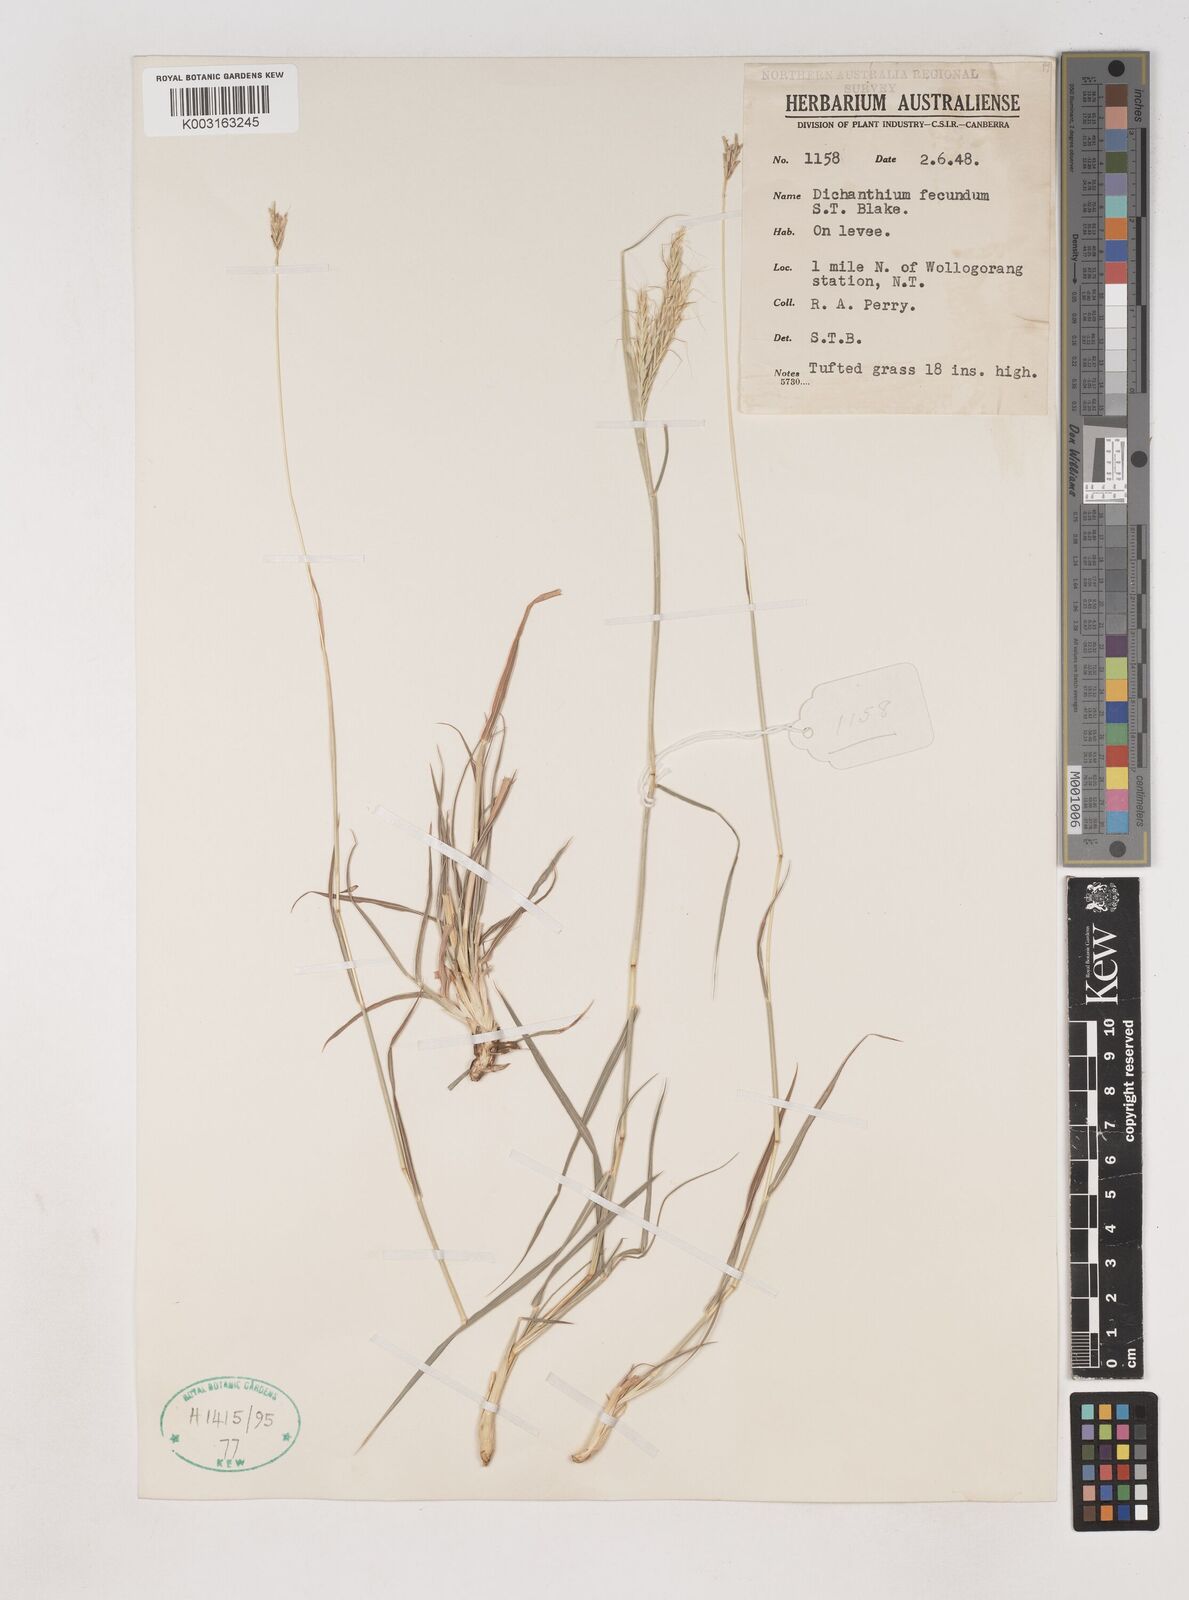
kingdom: Plantae
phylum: Tracheophyta
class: Liliopsida
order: Poales
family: Poaceae
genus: Dichanthium
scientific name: Dichanthium fecundum
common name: Bundle-bundle
